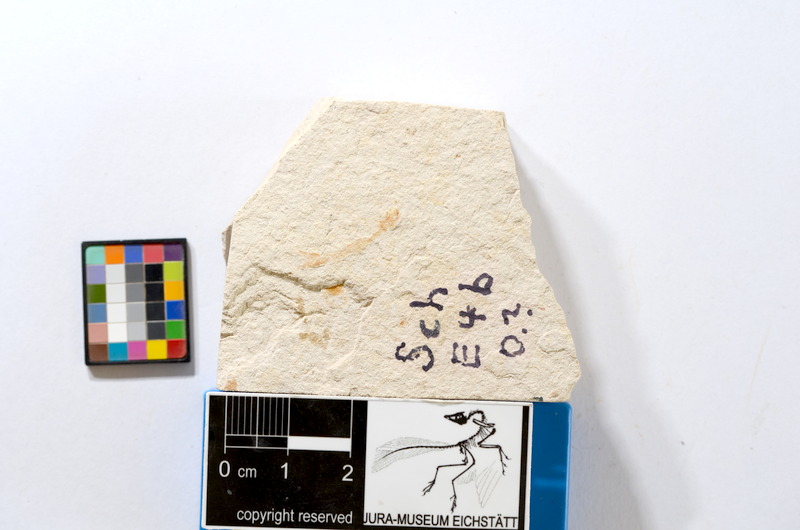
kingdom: Animalia
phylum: Chordata
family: Ascalaboidae
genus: Tharsis
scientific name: Tharsis dubius
